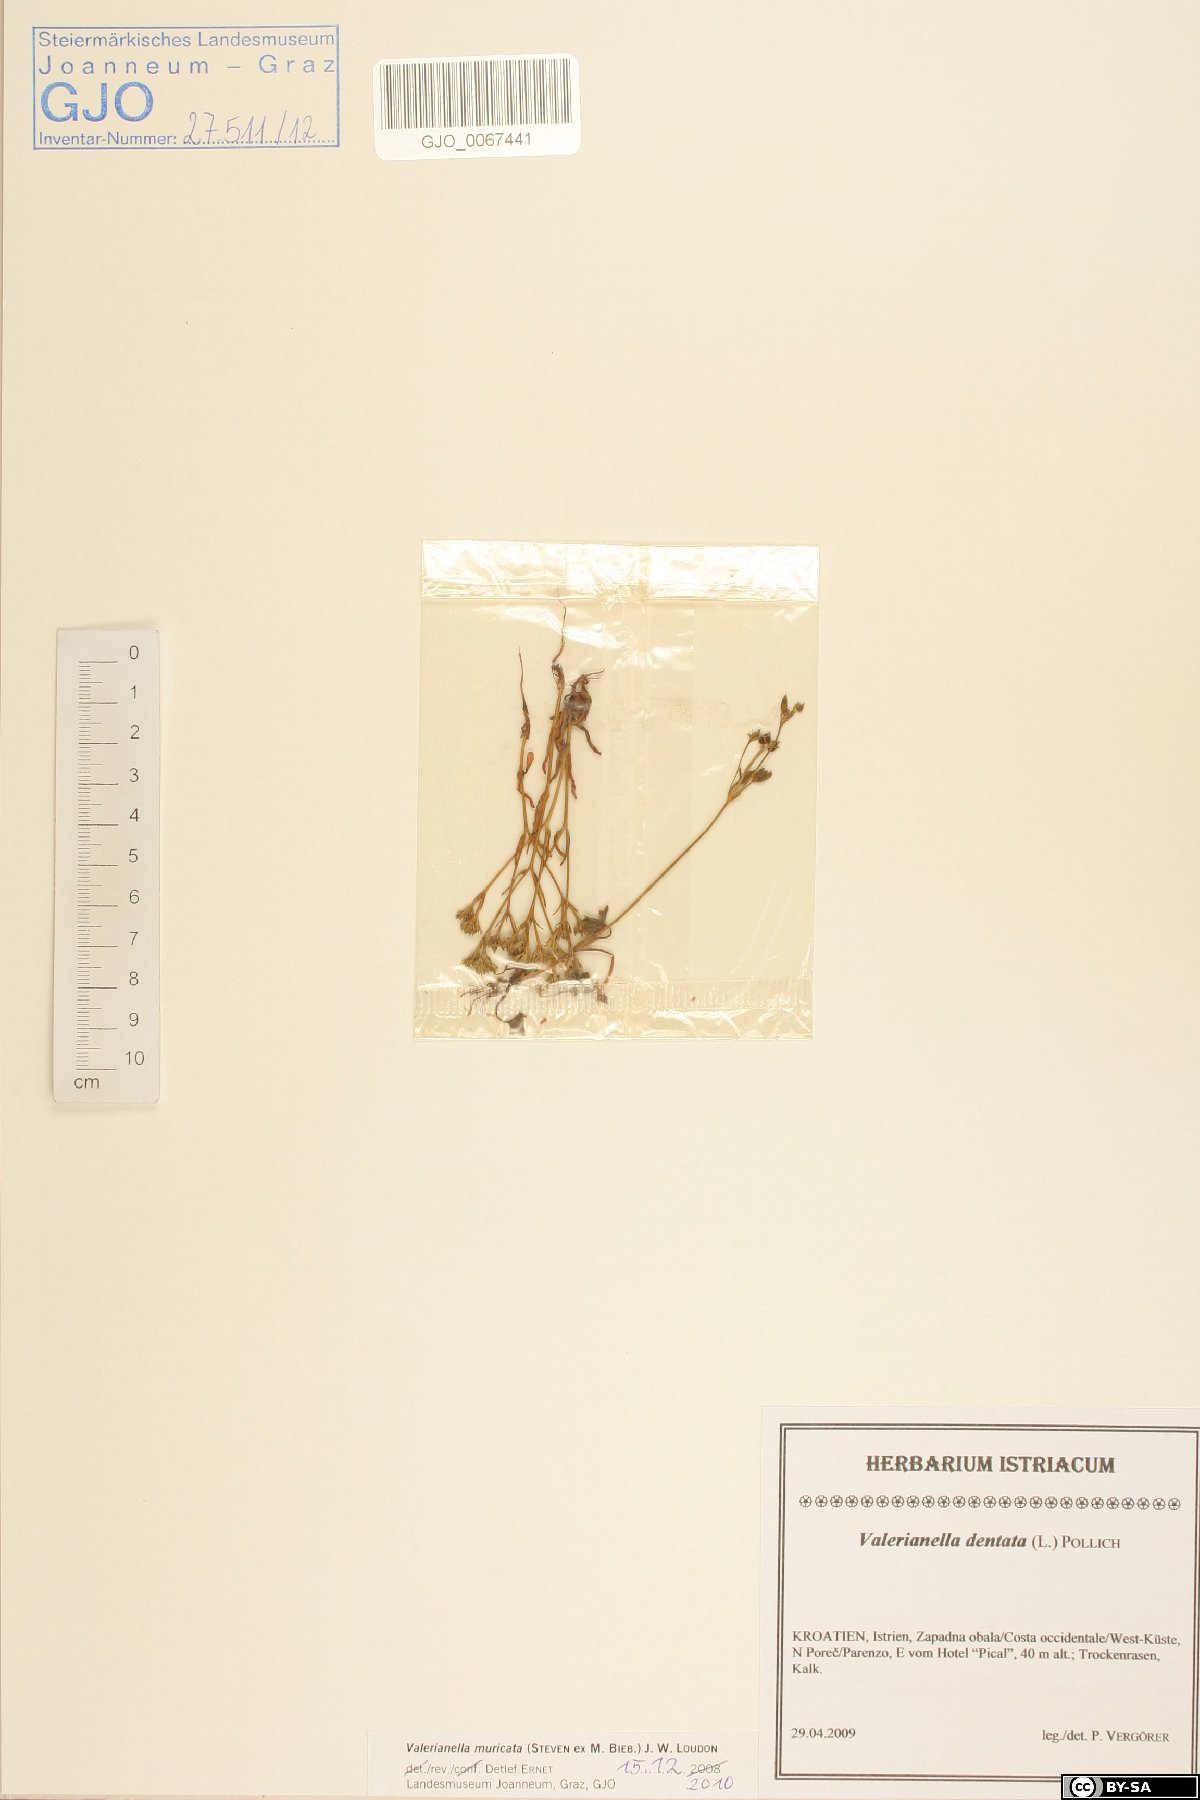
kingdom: Plantae
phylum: Tracheophyta
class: Magnoliopsida
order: Dipsacales
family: Caprifoliaceae
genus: Valerianella
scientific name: Valerianella eriocarpa
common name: Hairy-fruited cornsalad
